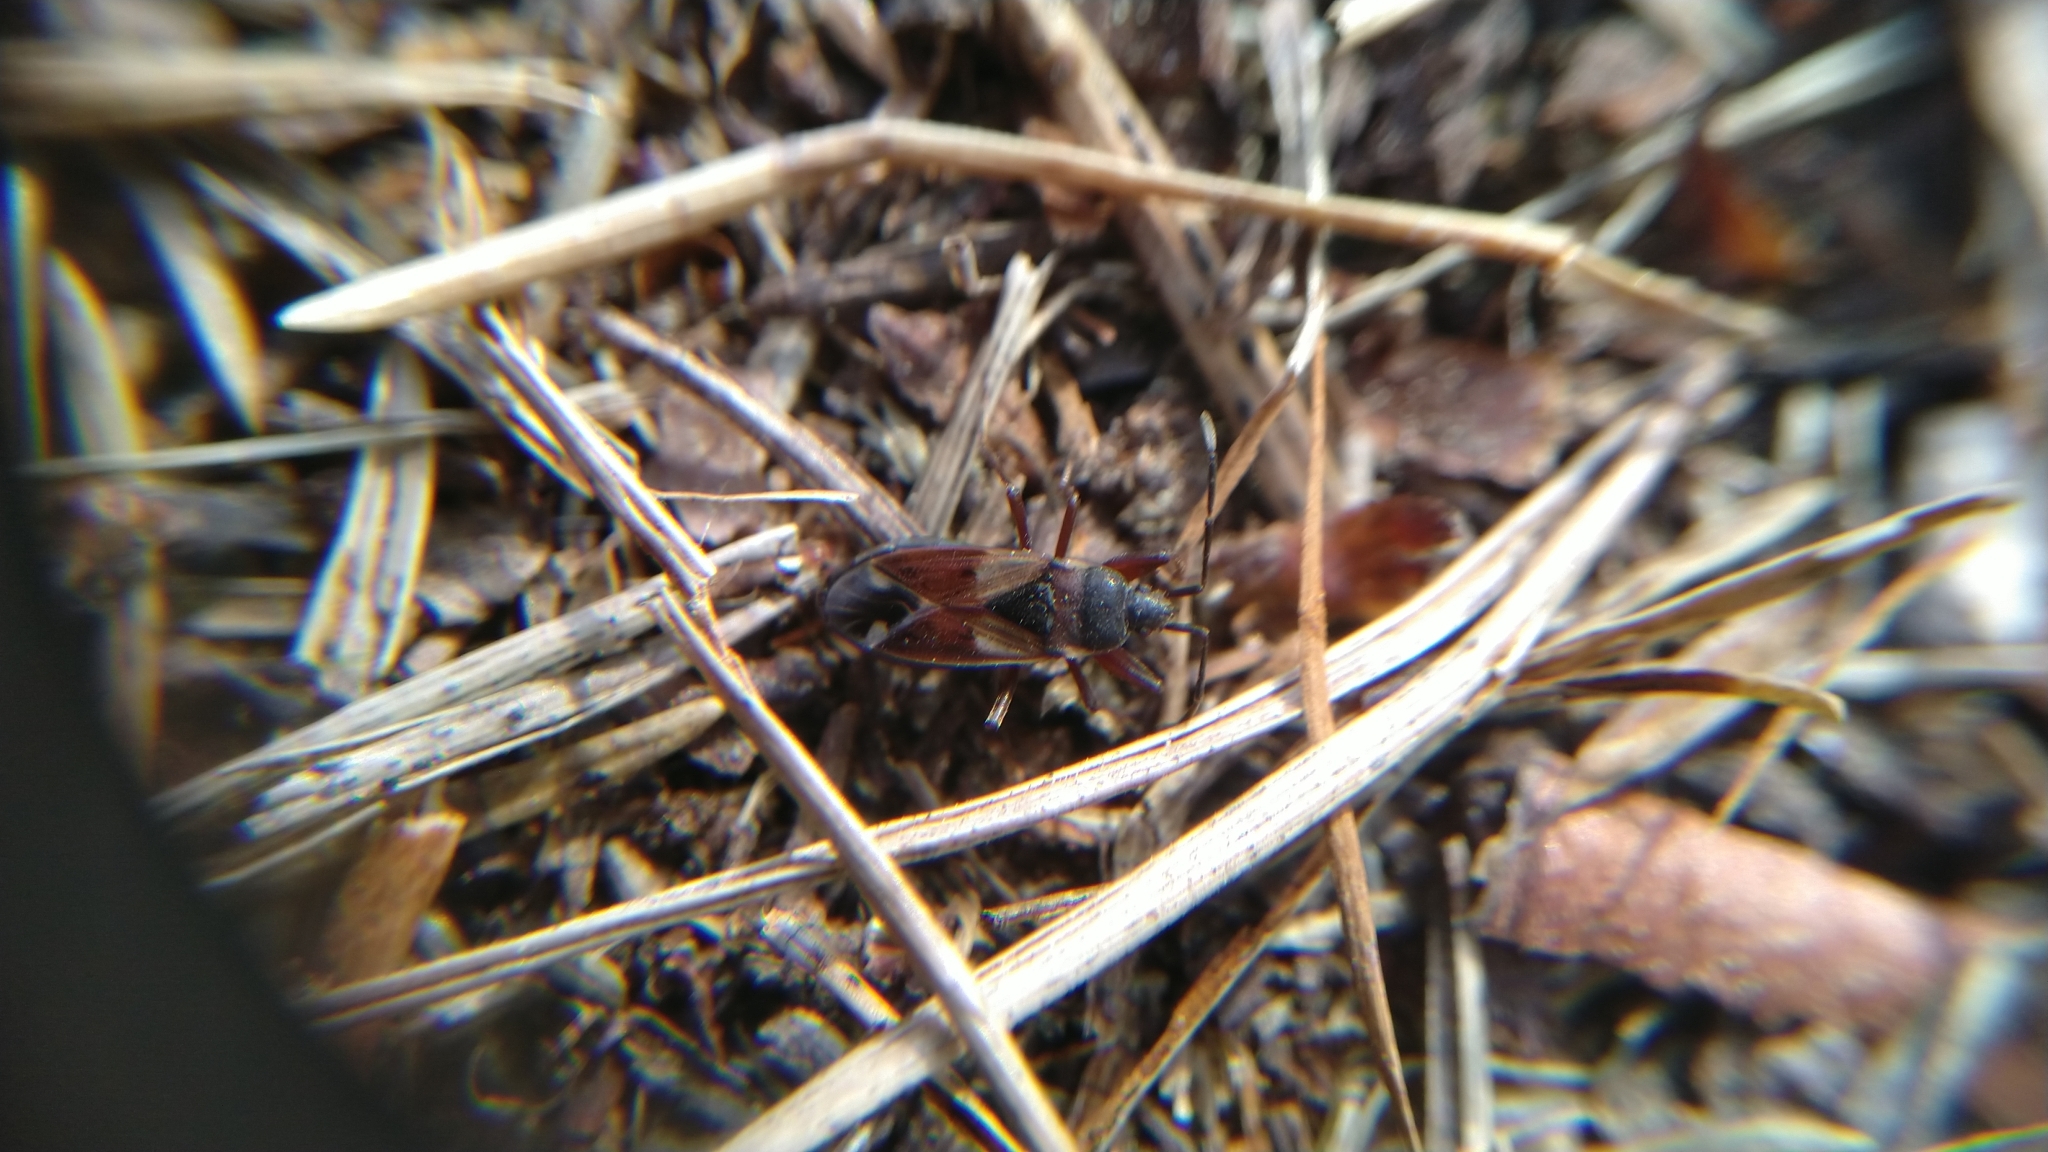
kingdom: Animalia
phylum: Arthropoda
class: Insecta
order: Hemiptera
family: Rhyparochromidae
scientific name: Rhyparochromidae
